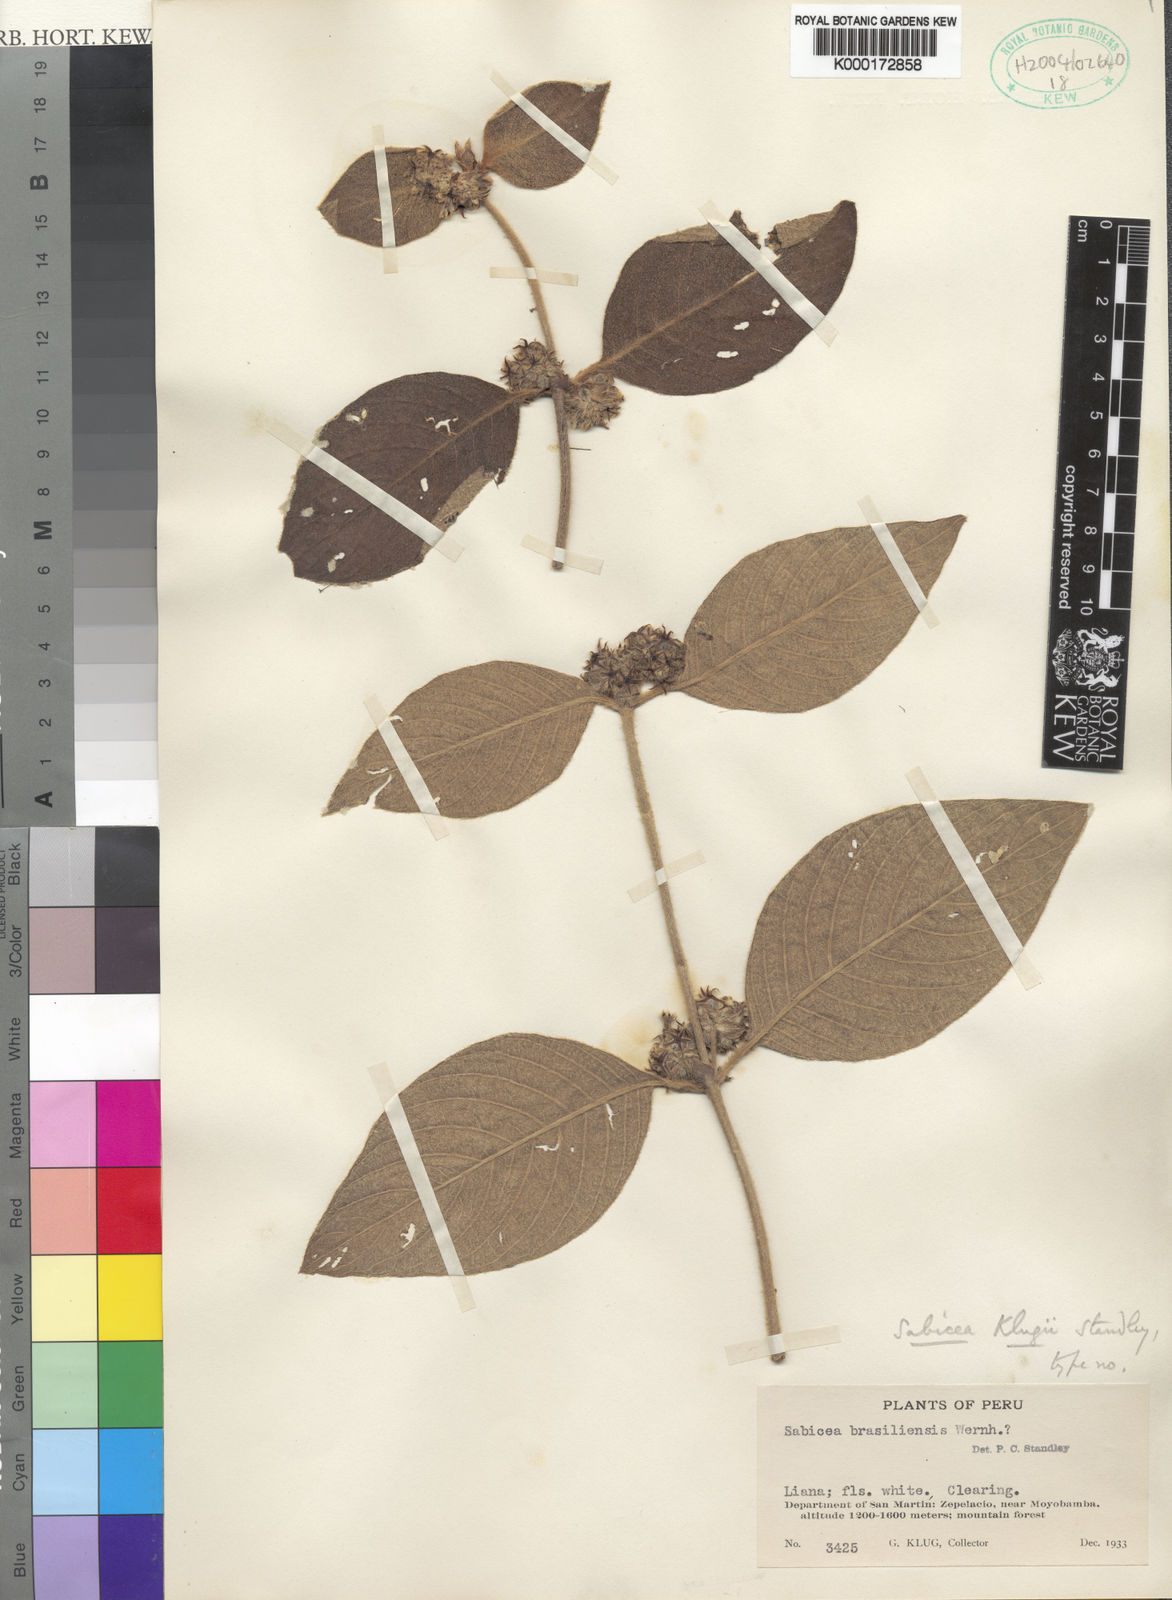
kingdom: Plantae
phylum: Tracheophyta
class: Magnoliopsida
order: Gentianales
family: Rubiaceae
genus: Sabicea
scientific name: Sabicea klugii
